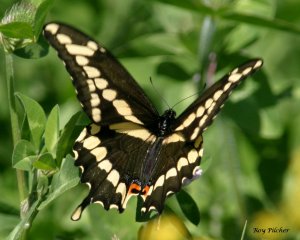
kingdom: Animalia
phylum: Arthropoda
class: Insecta
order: Lepidoptera
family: Papilionidae
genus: Papilio
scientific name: Papilio cresphontes
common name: Eastern Giant Swallowtail
